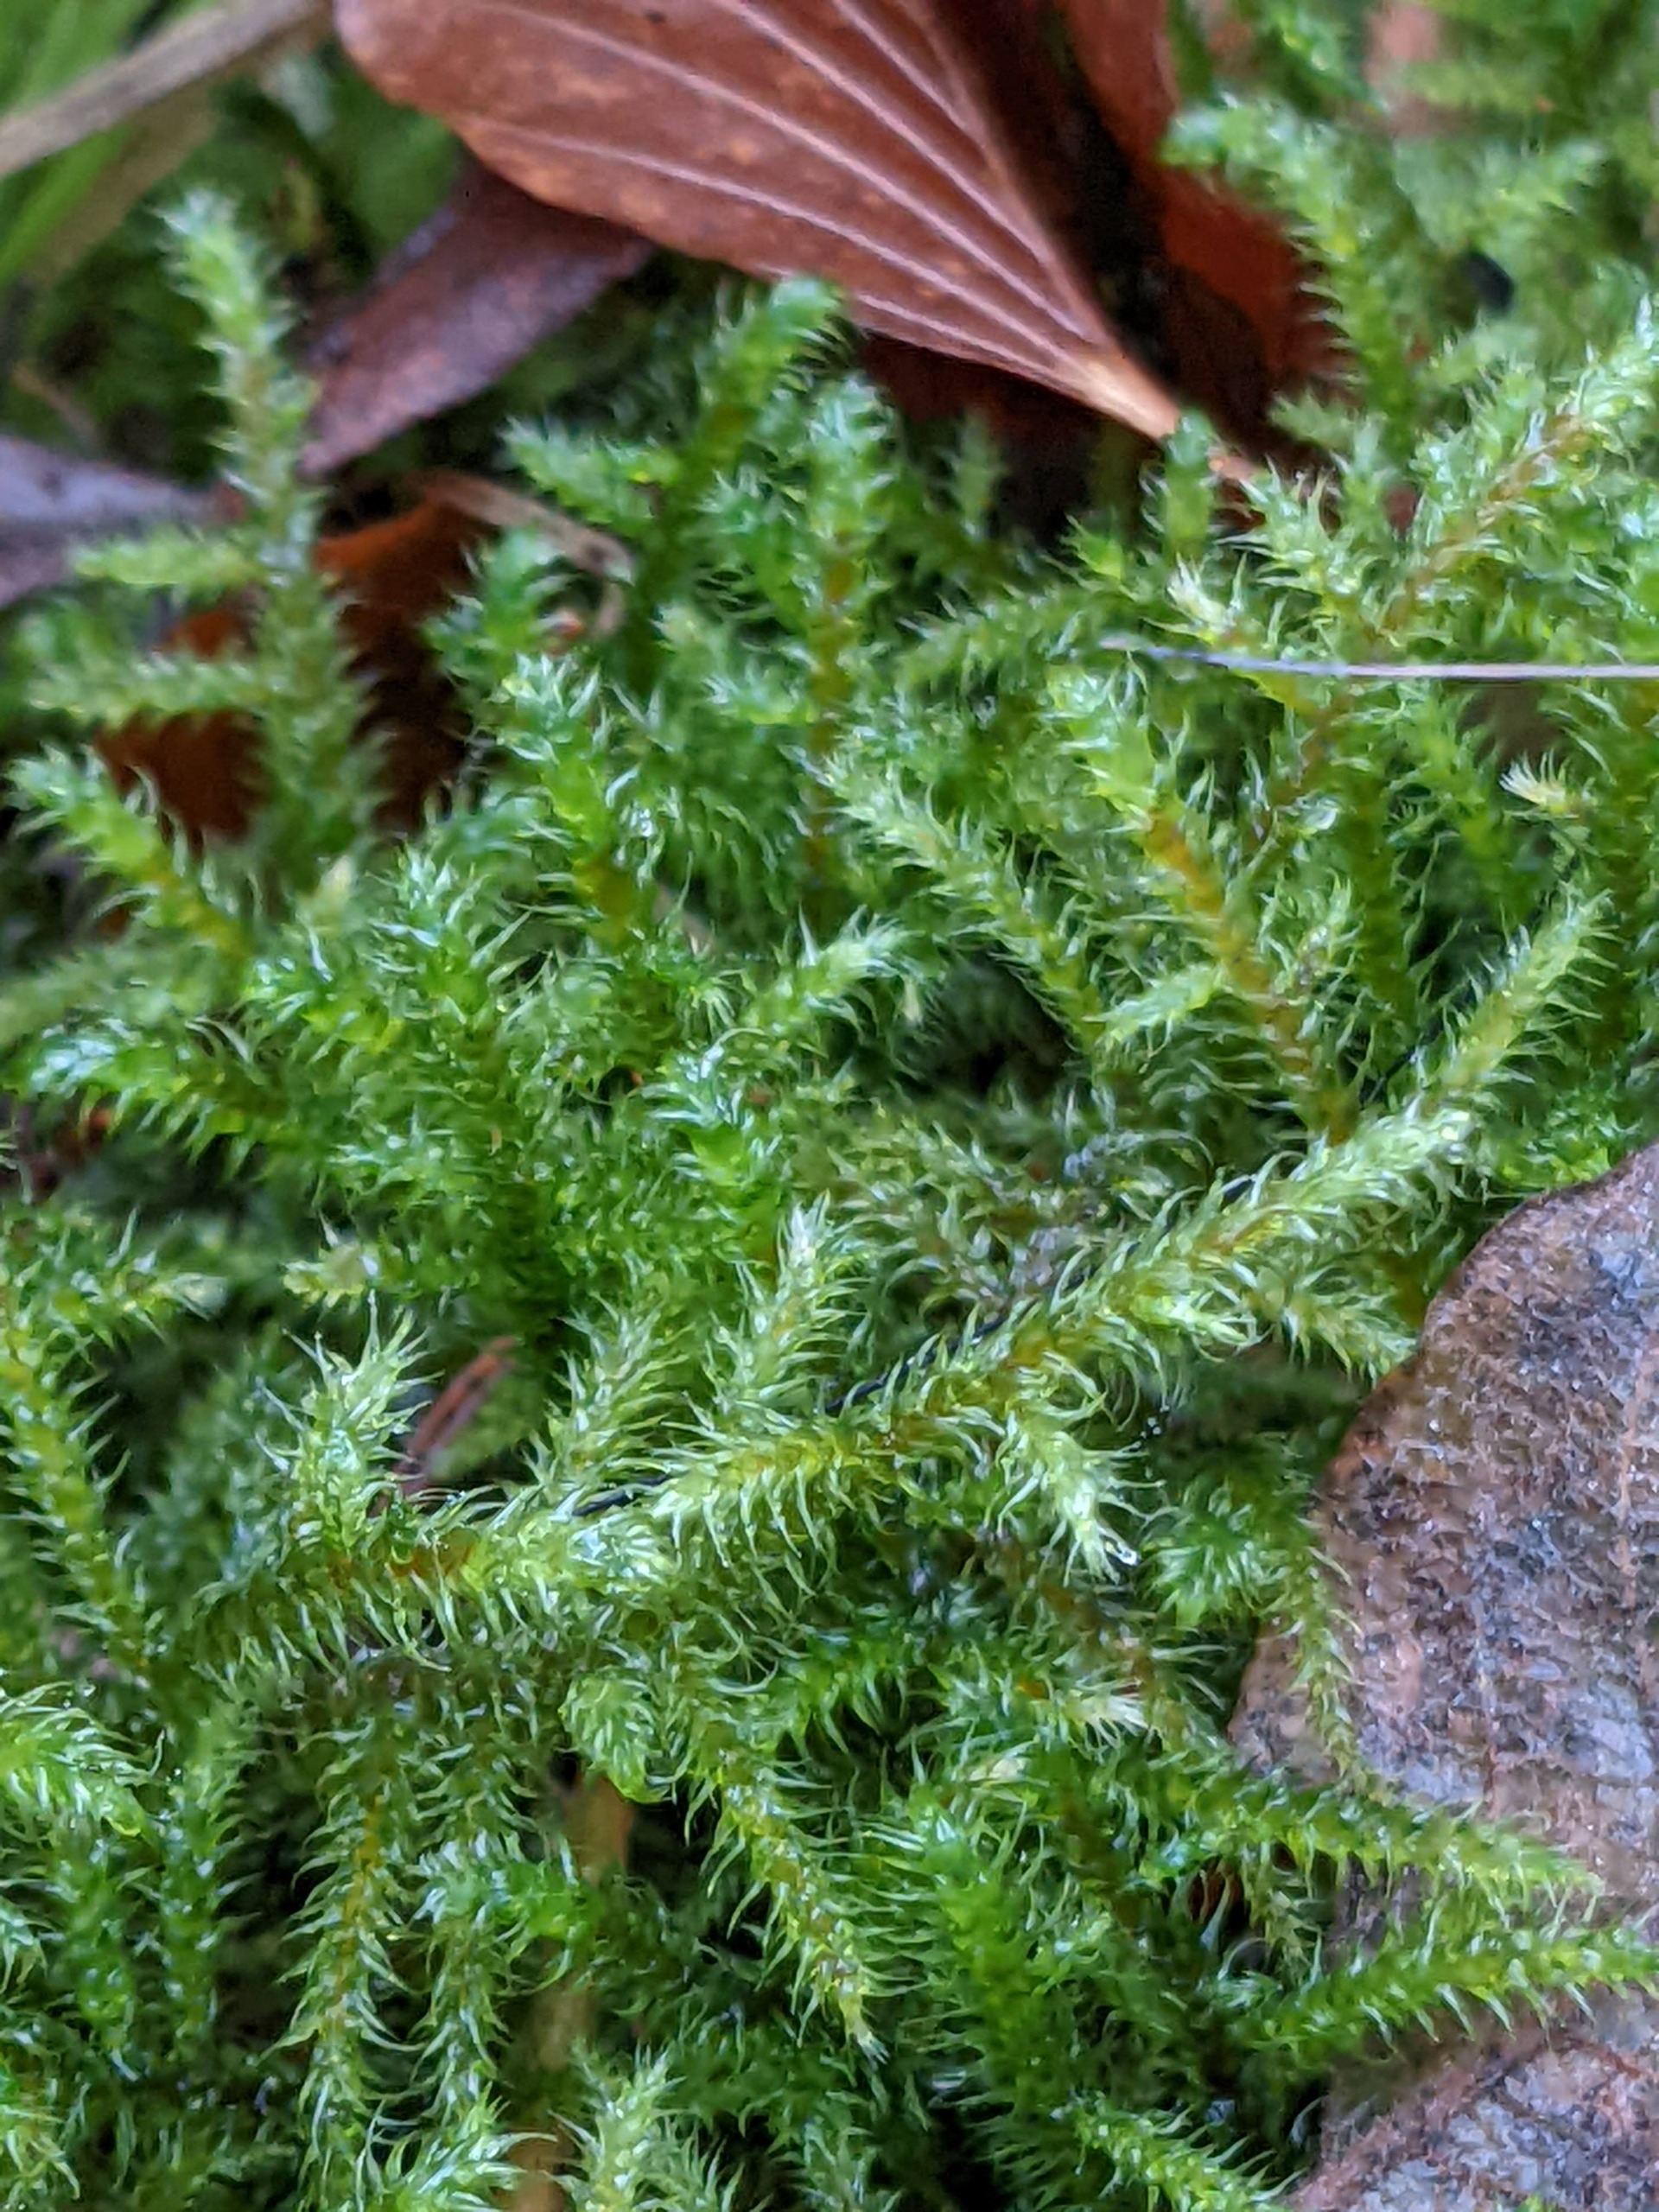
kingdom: Plantae
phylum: Bryophyta
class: Bryopsida
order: Hypnales
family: Hylocomiaceae
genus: Rhytidiadelphus
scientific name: Rhytidiadelphus loreus
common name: Ulvefod-kransemos
